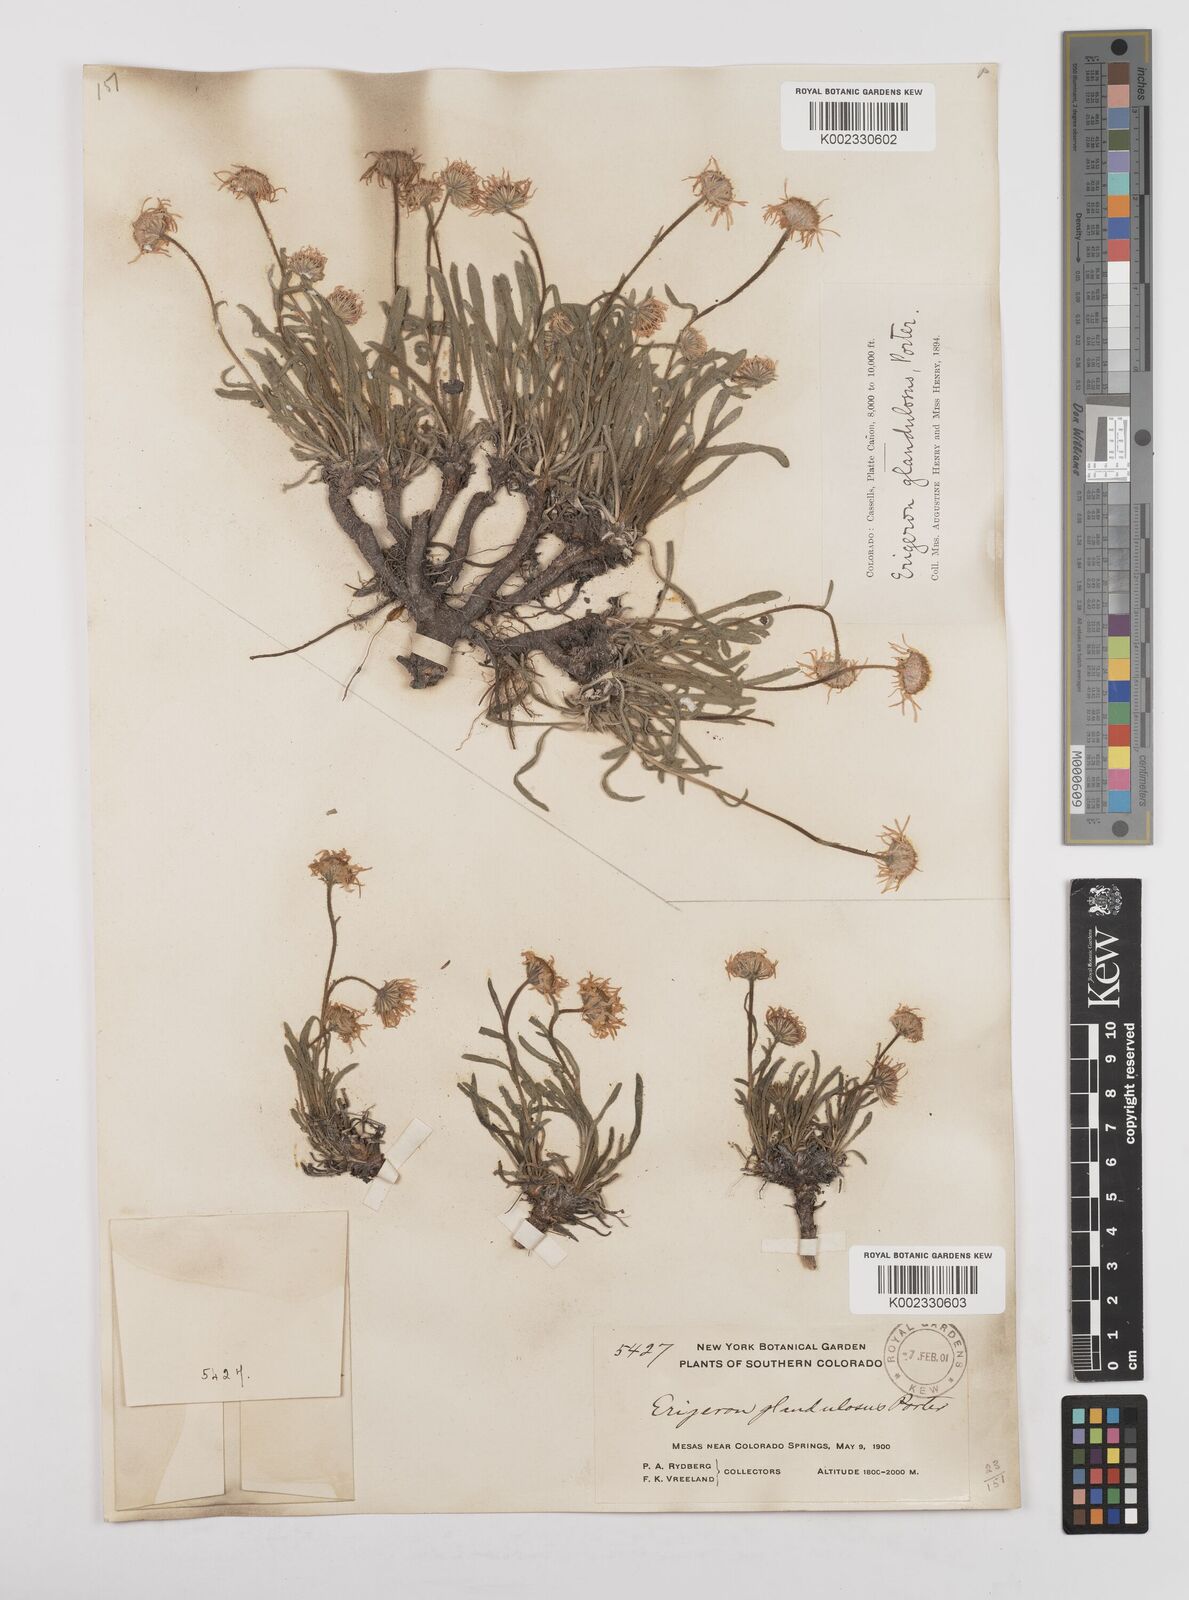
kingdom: Plantae
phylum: Tracheophyta
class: Magnoliopsida
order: Asterales
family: Asteraceae
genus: Erigeron
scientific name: Erigeron vetensis
